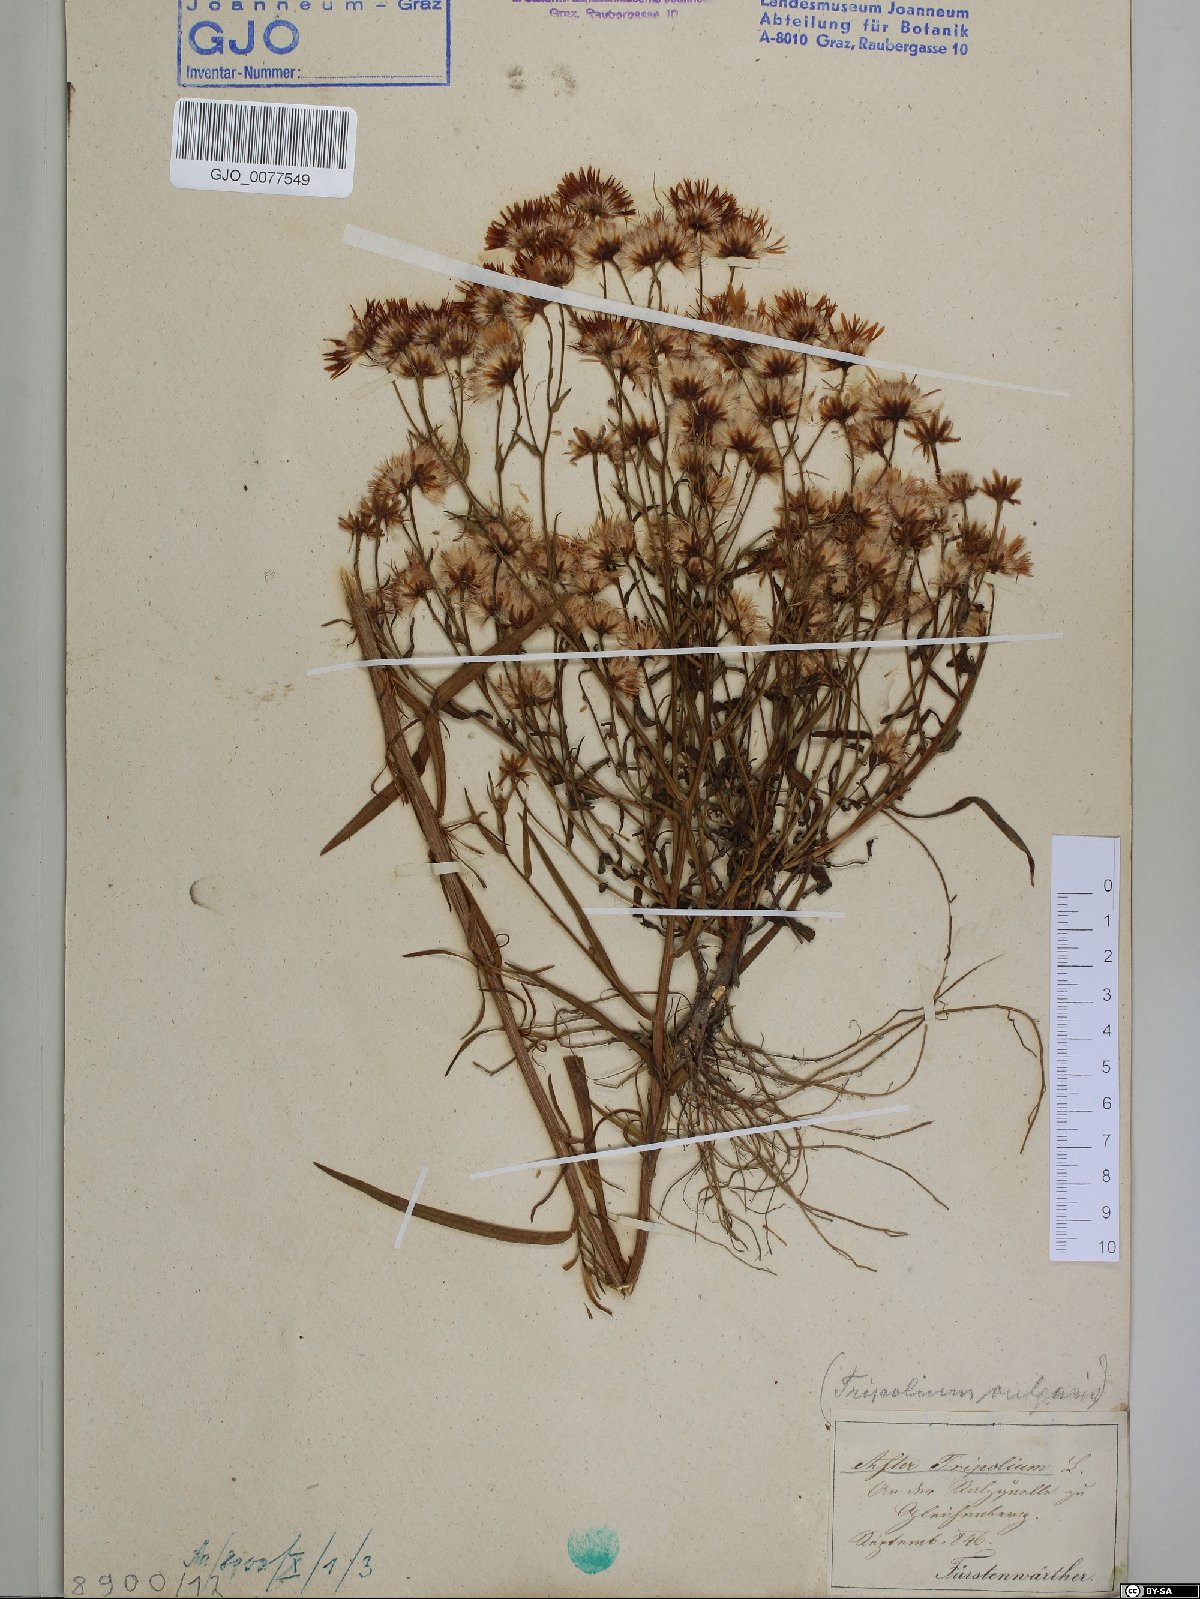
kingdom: Plantae
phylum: Tracheophyta
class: Magnoliopsida
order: Asterales
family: Asteraceae
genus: Tripolium
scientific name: Tripolium pannonicum
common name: Sea aster
